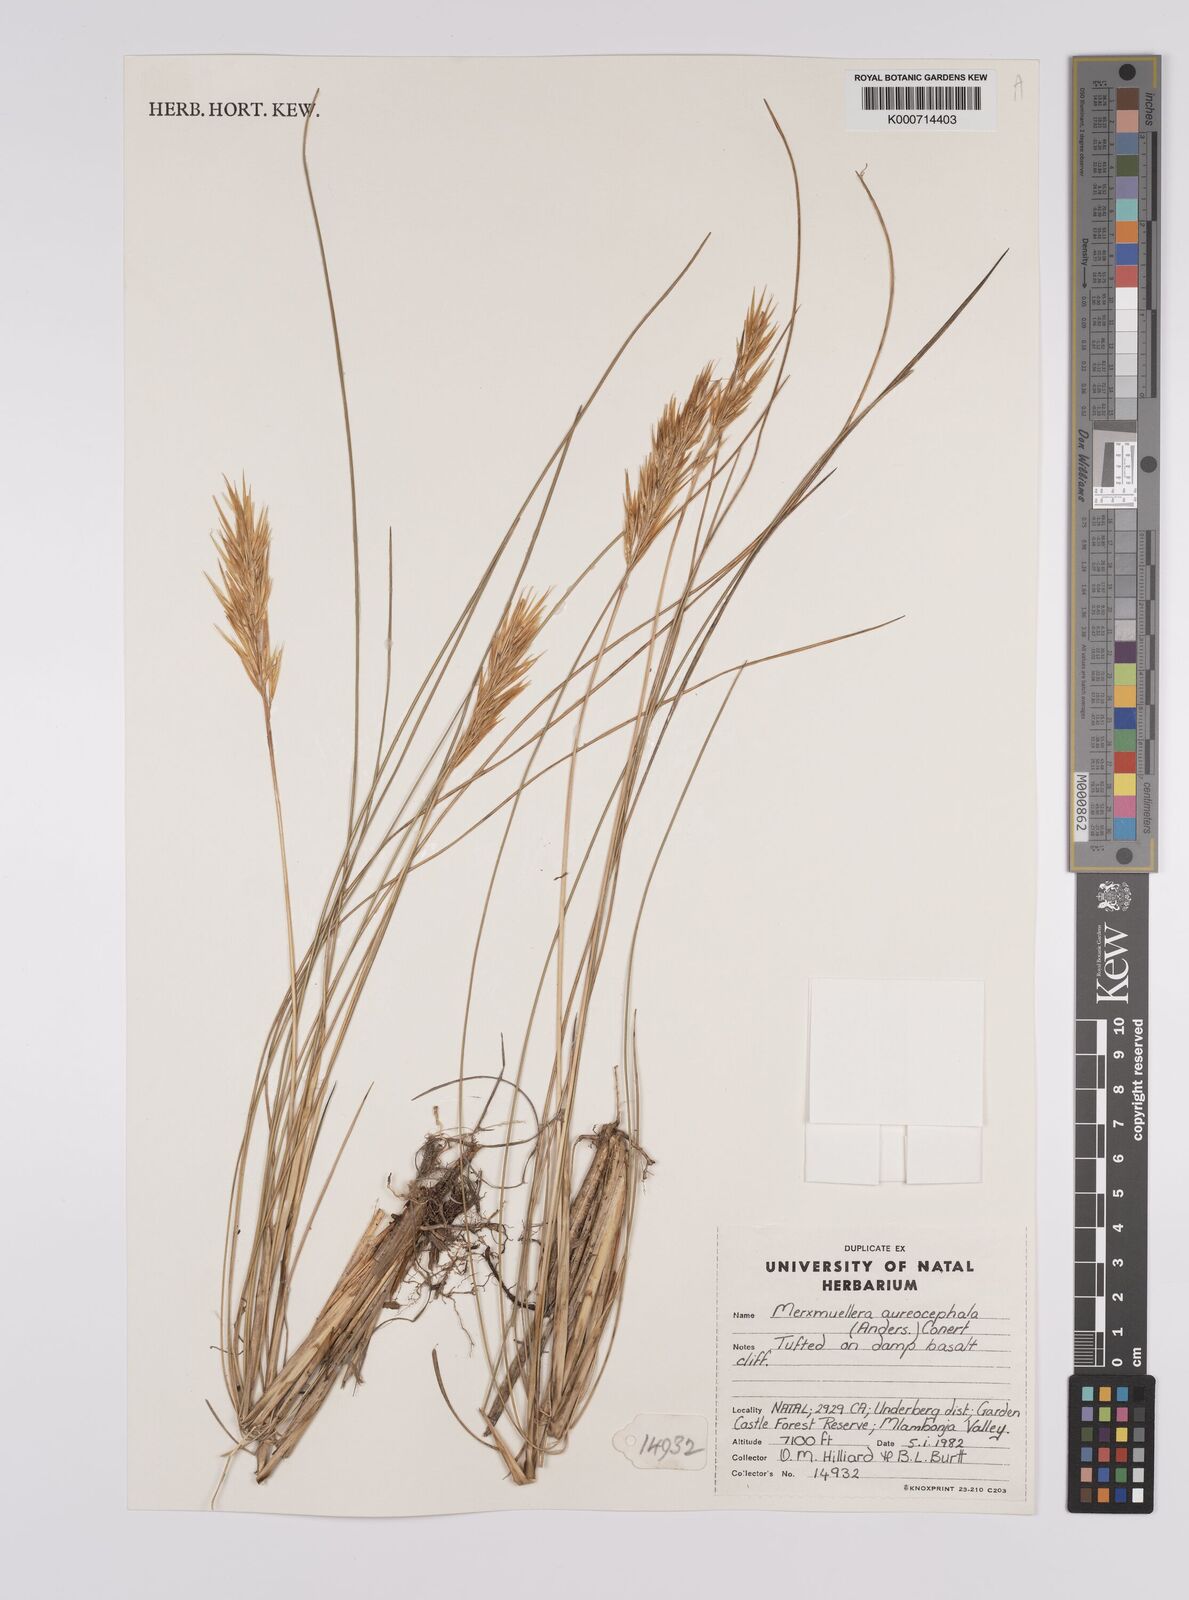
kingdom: Plantae
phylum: Tracheophyta
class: Liliopsida
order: Poales
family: Poaceae
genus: Rytidosperma
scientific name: Rytidosperma
